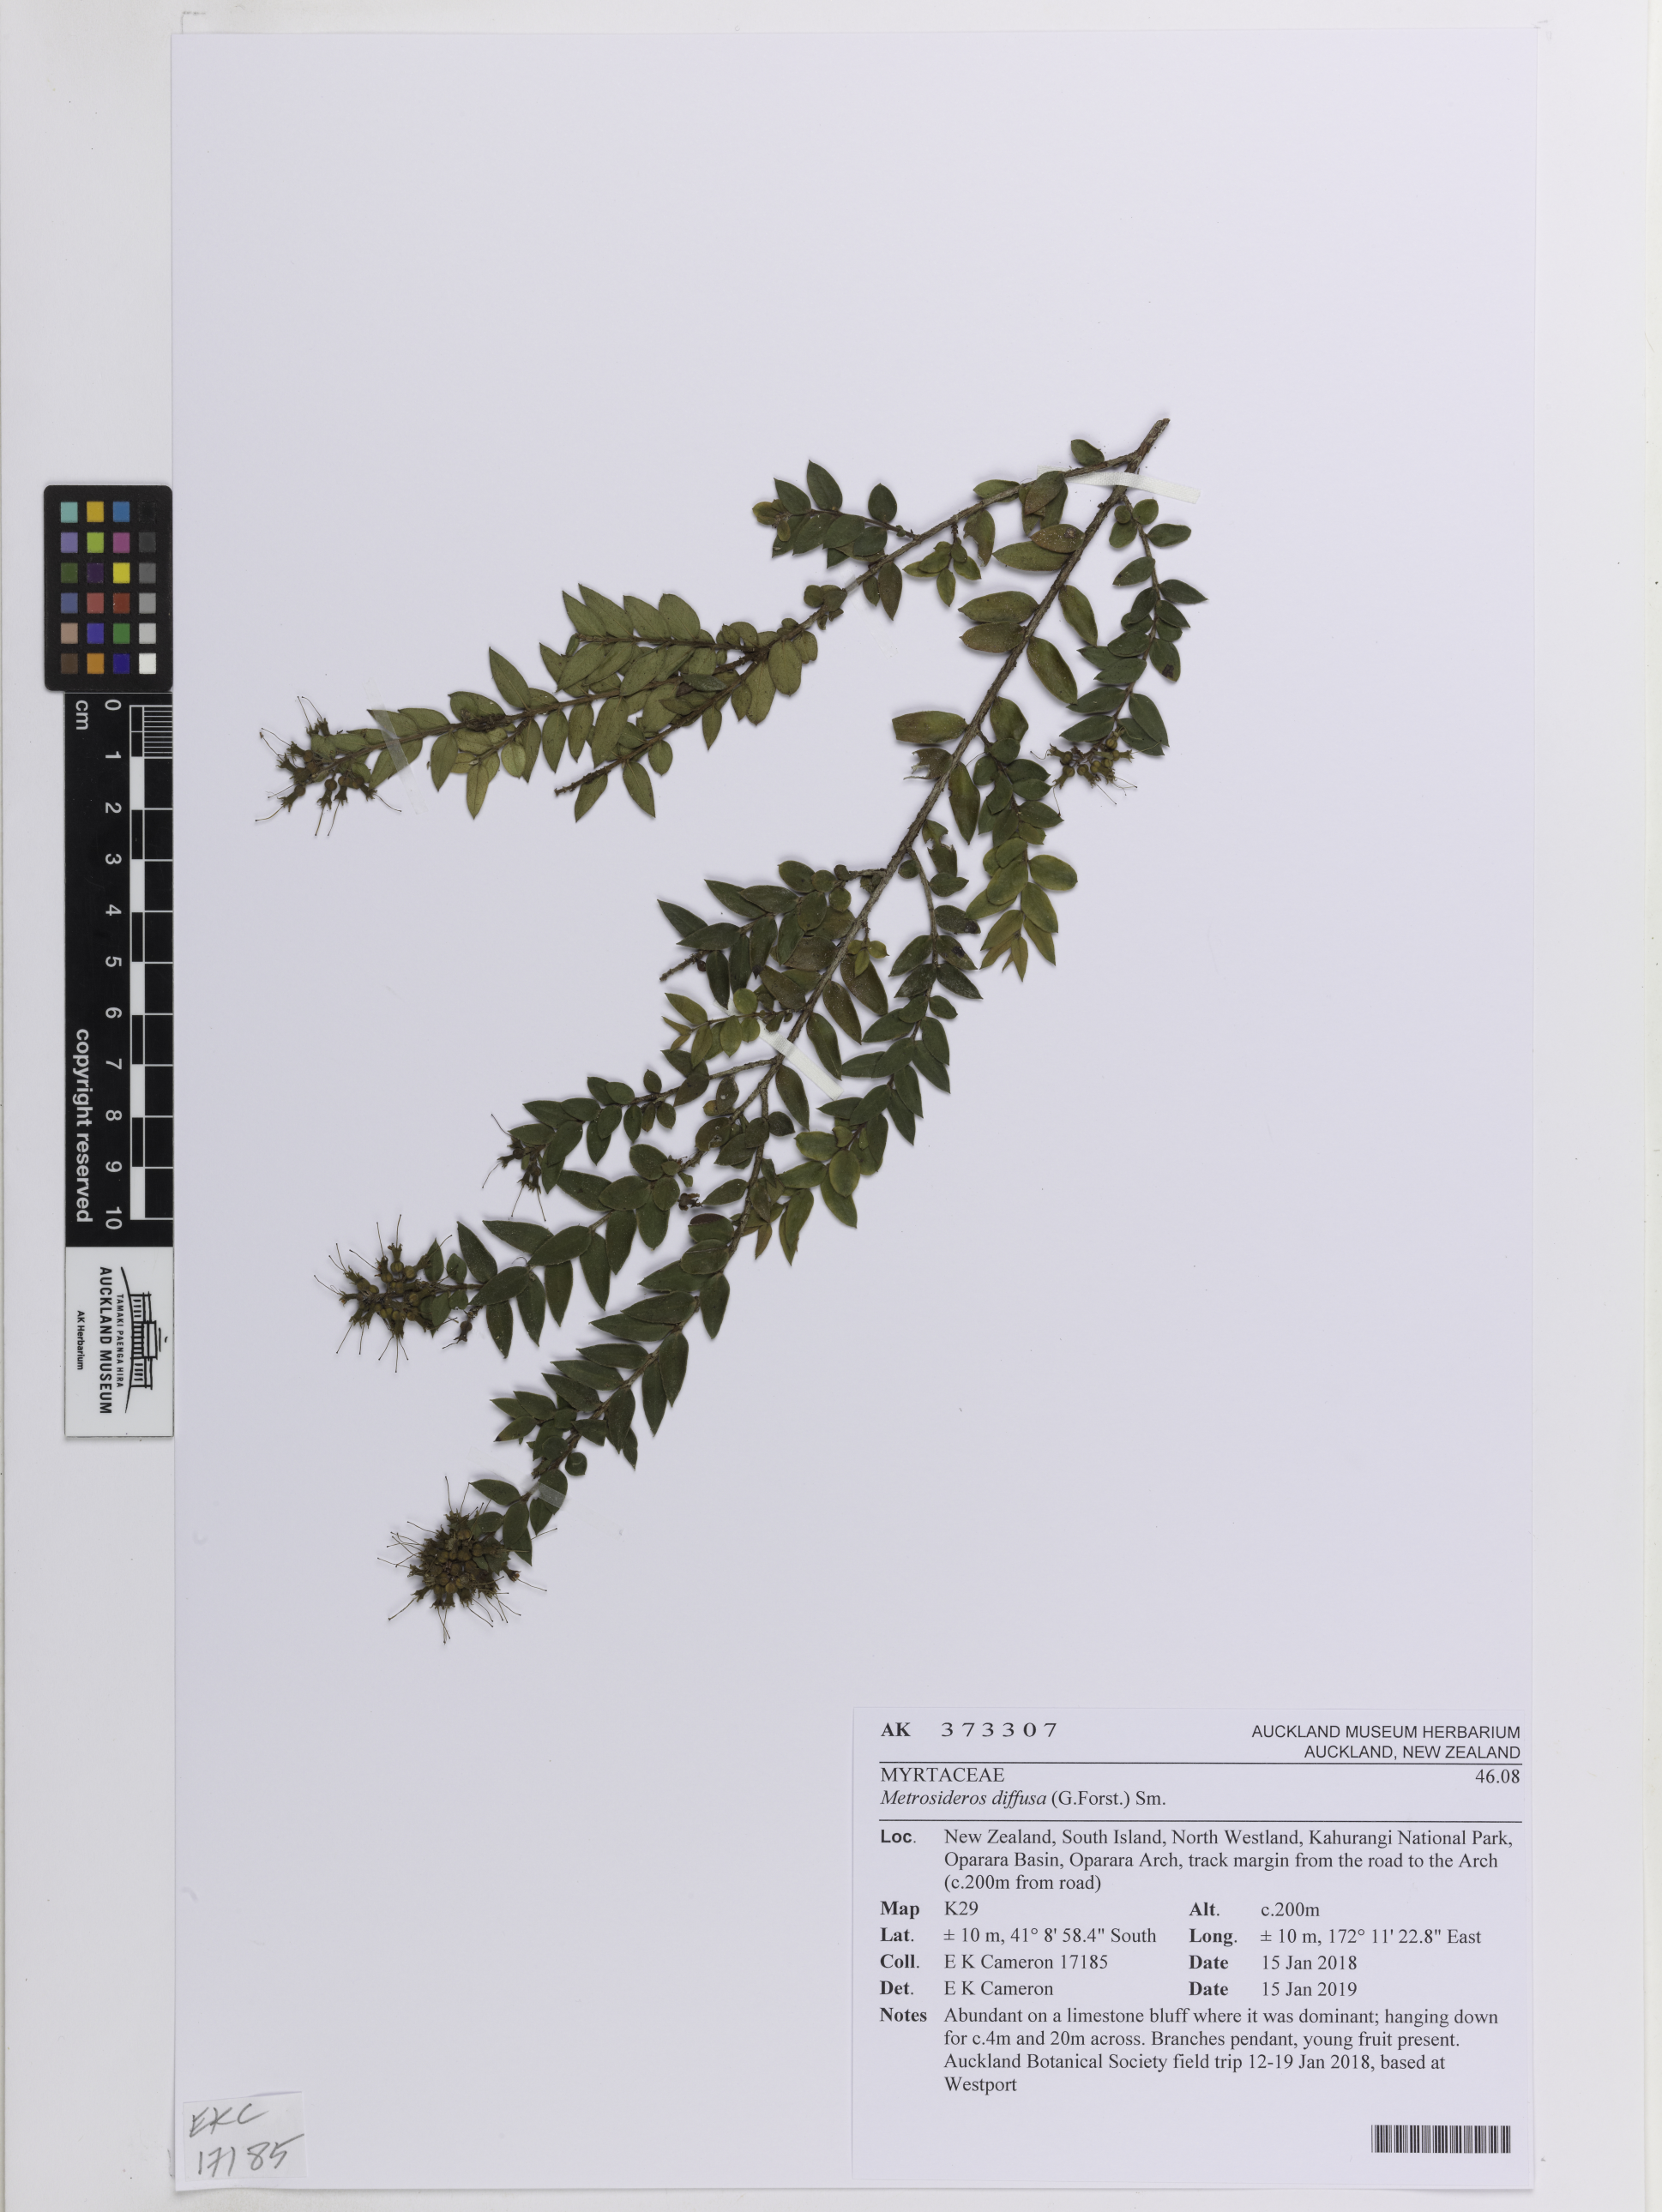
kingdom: Plantae
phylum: Tracheophyta
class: Magnoliopsida
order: Myrtales
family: Myrtaceae
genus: Metrosideros
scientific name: Metrosideros diffusa
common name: Small ratavine
